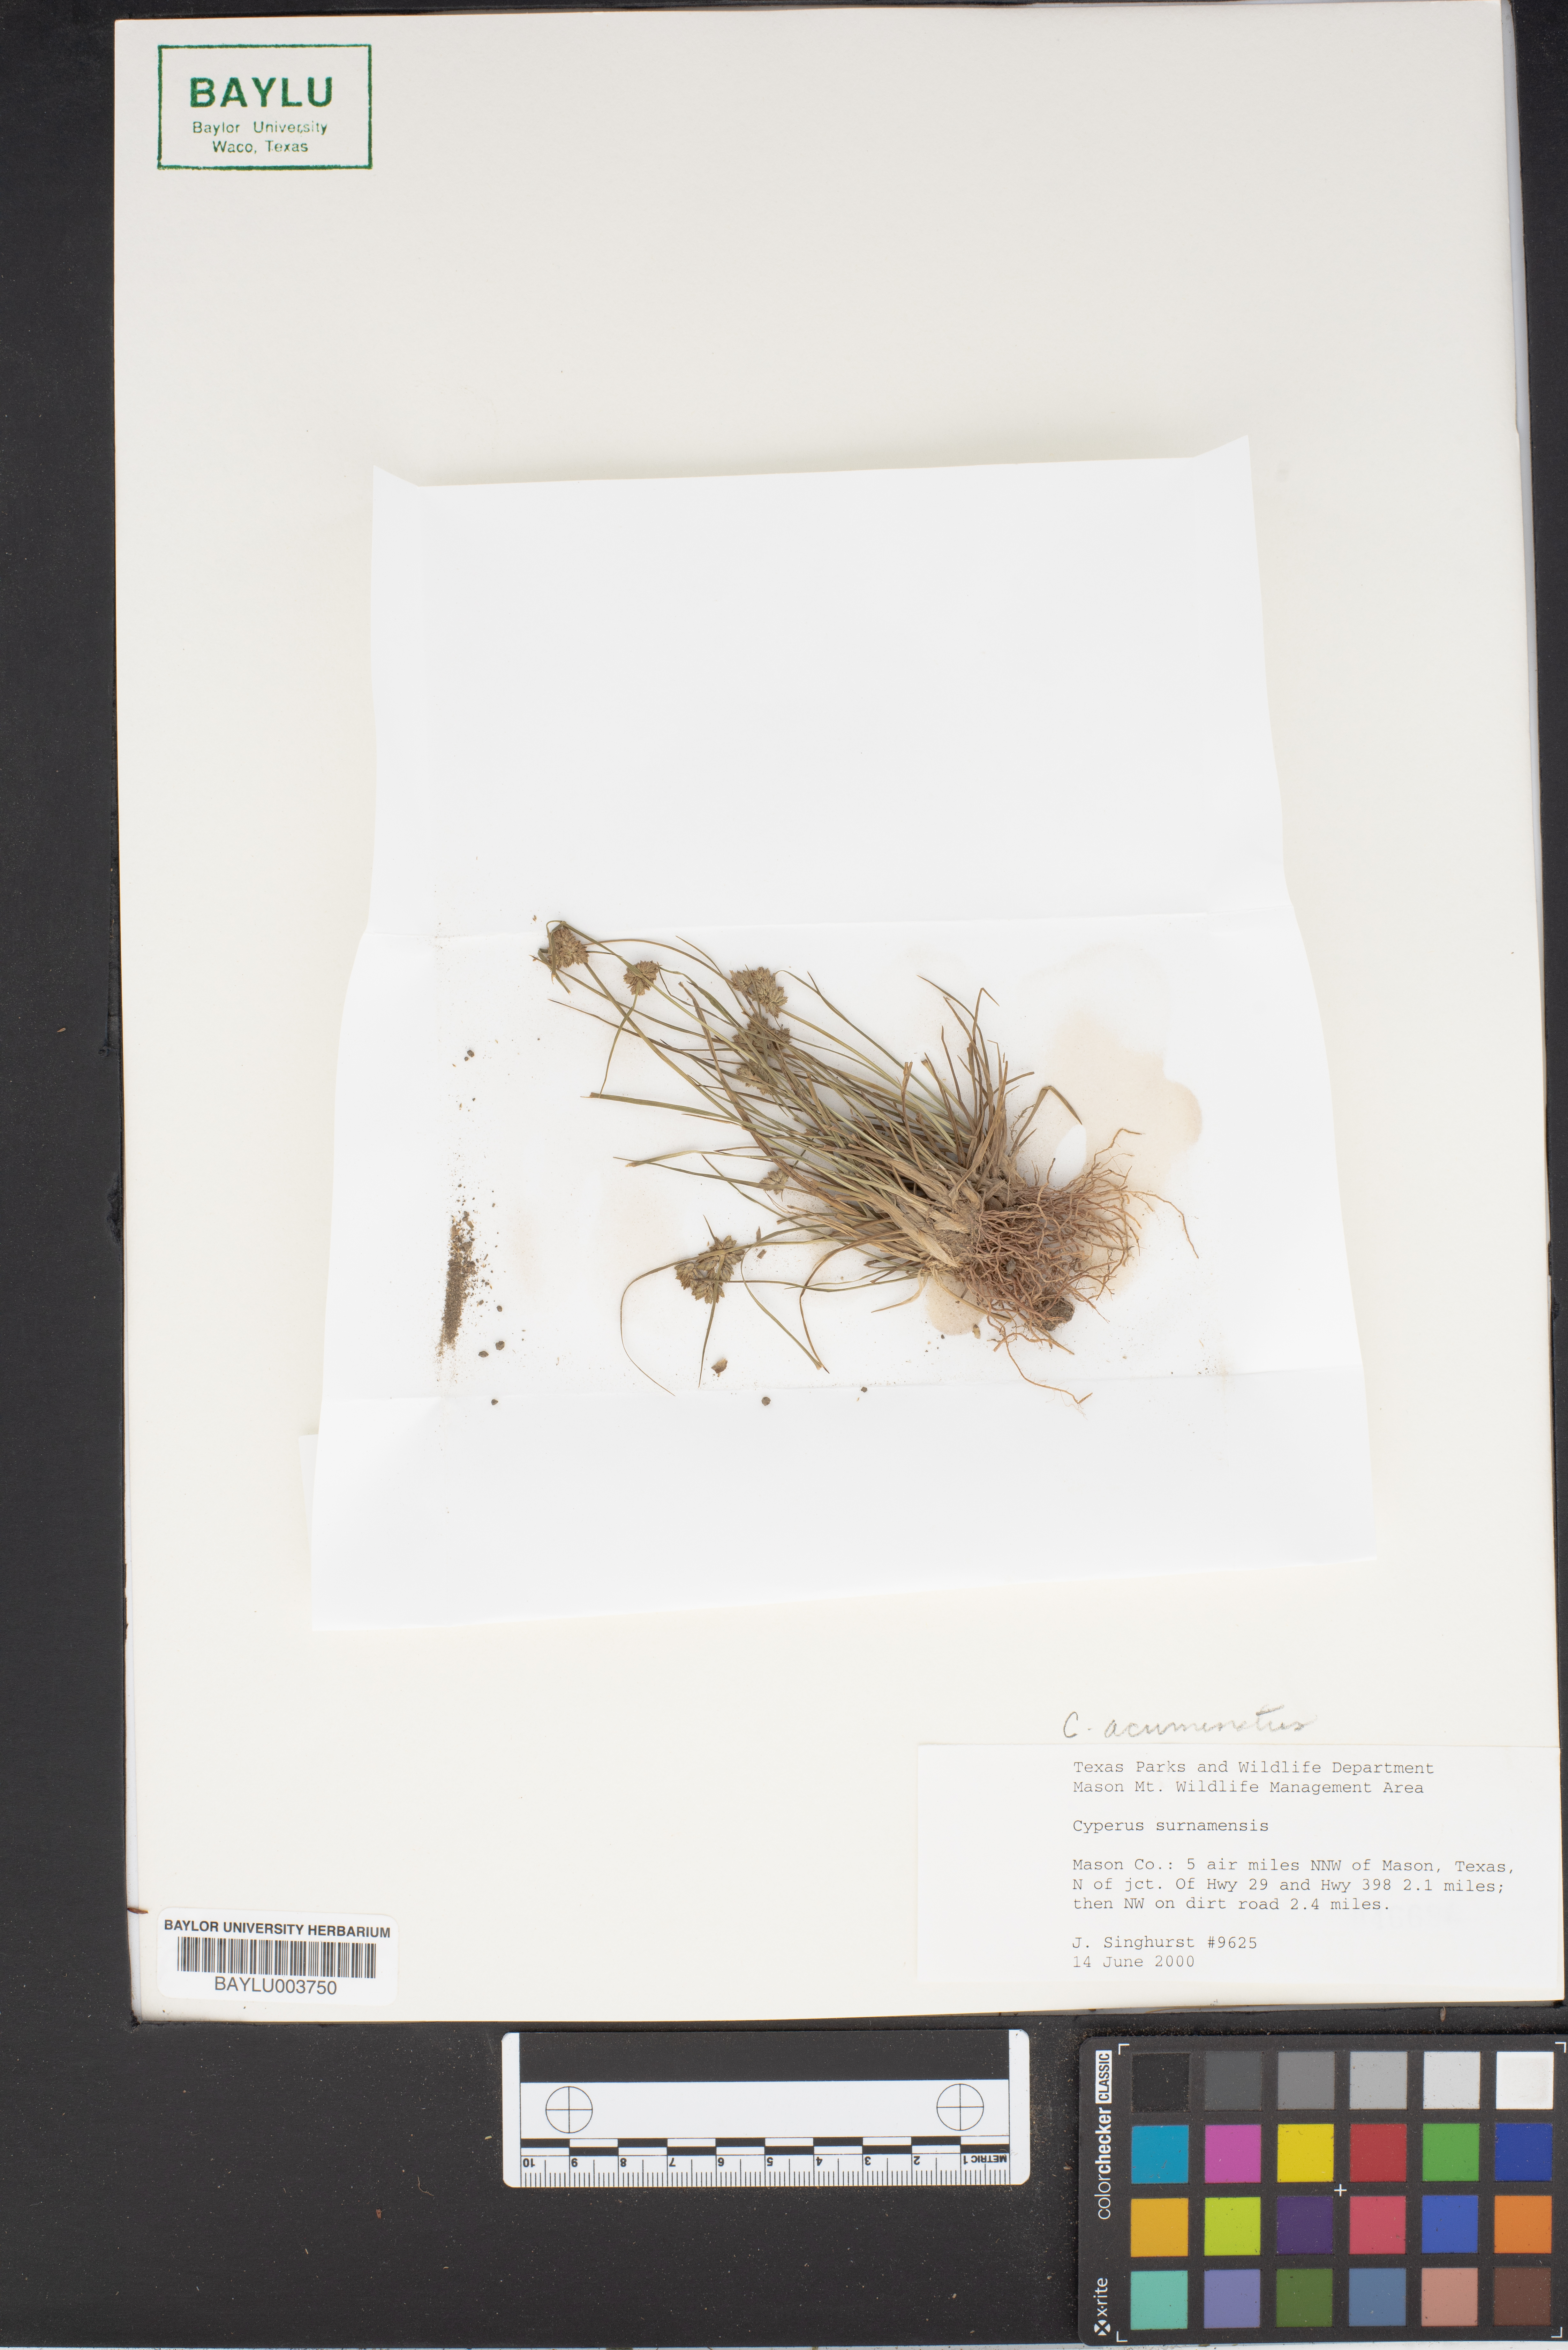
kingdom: Plantae
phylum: Tracheophyta
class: Liliopsida
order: Poales
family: Cyperaceae
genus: Cyperus
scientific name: Cyperus surinamensis
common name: Tropical flat sedge
